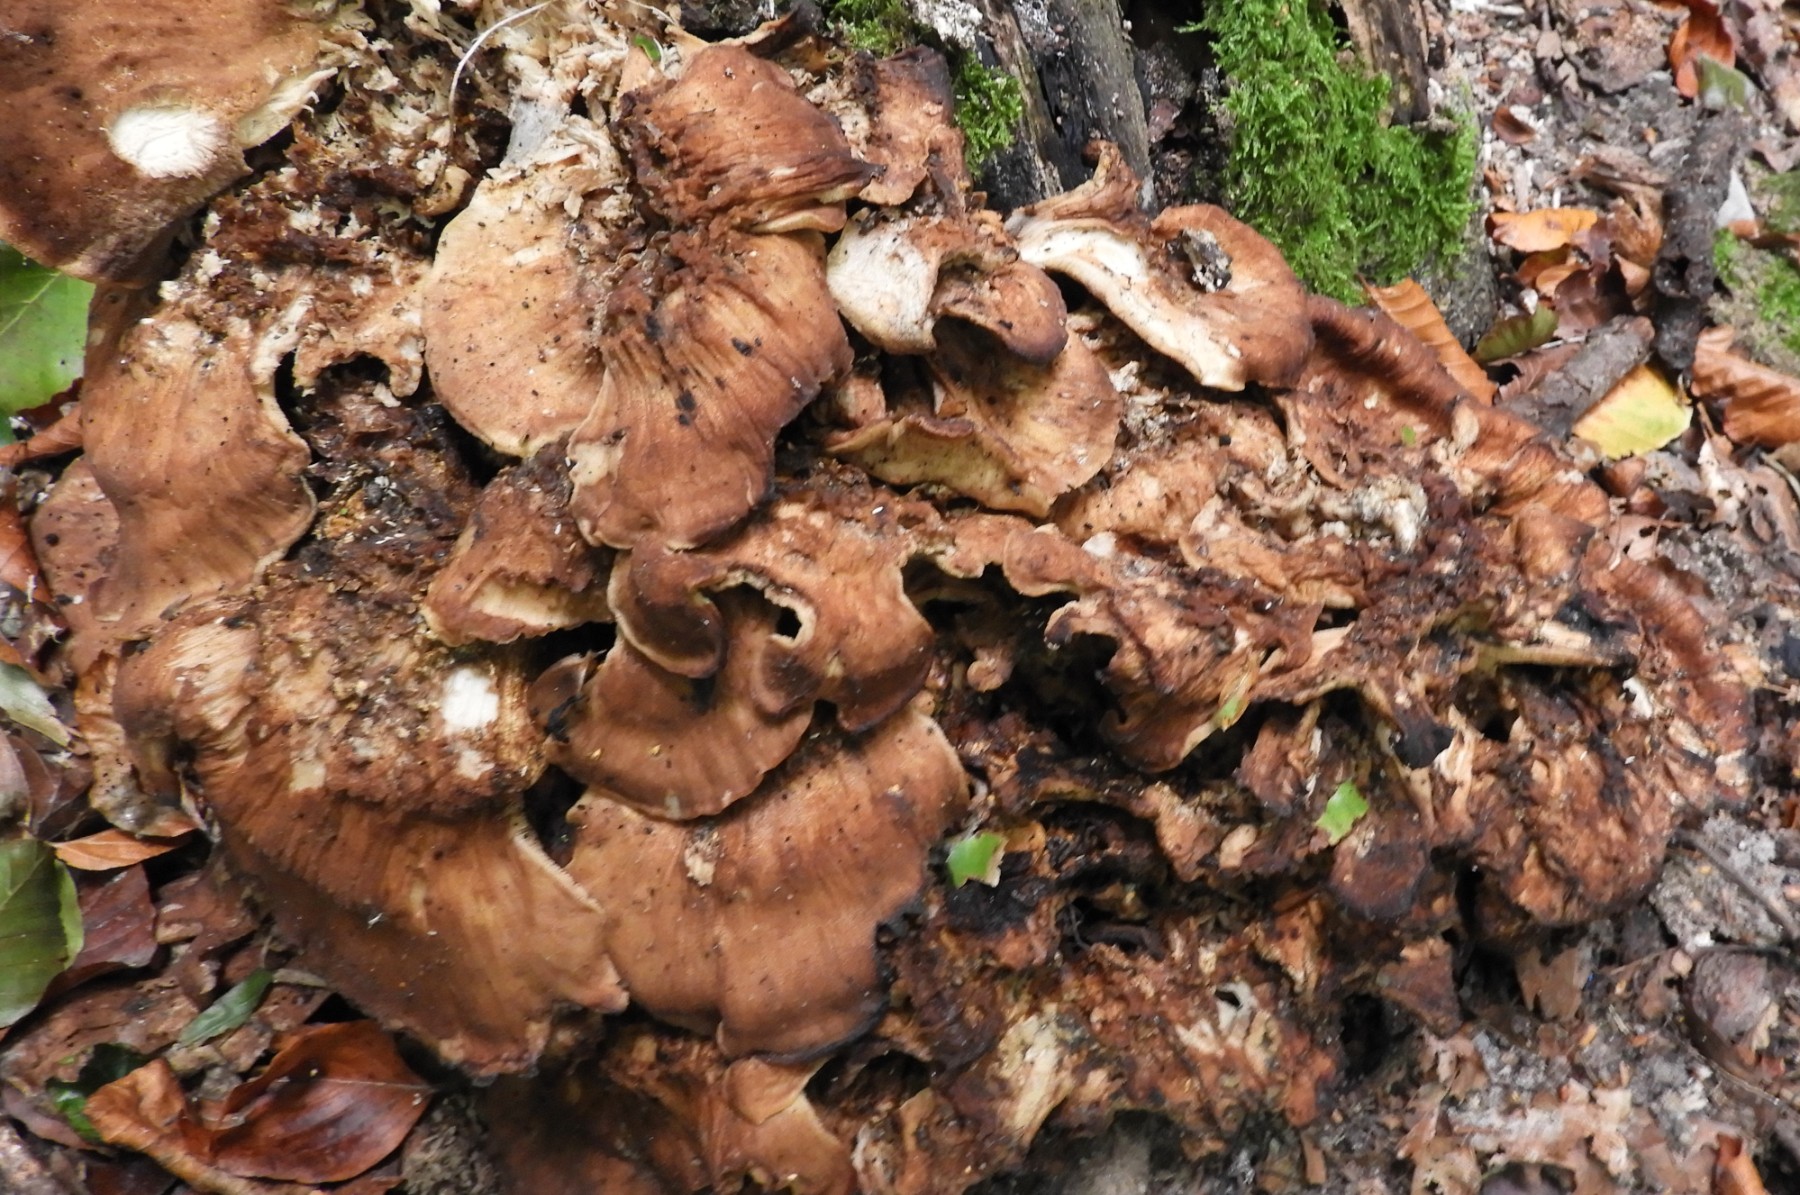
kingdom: Fungi
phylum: Basidiomycota
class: Agaricomycetes
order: Polyporales
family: Meripilaceae
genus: Meripilus
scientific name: Meripilus giganteus
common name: kæmpeporesvamp
